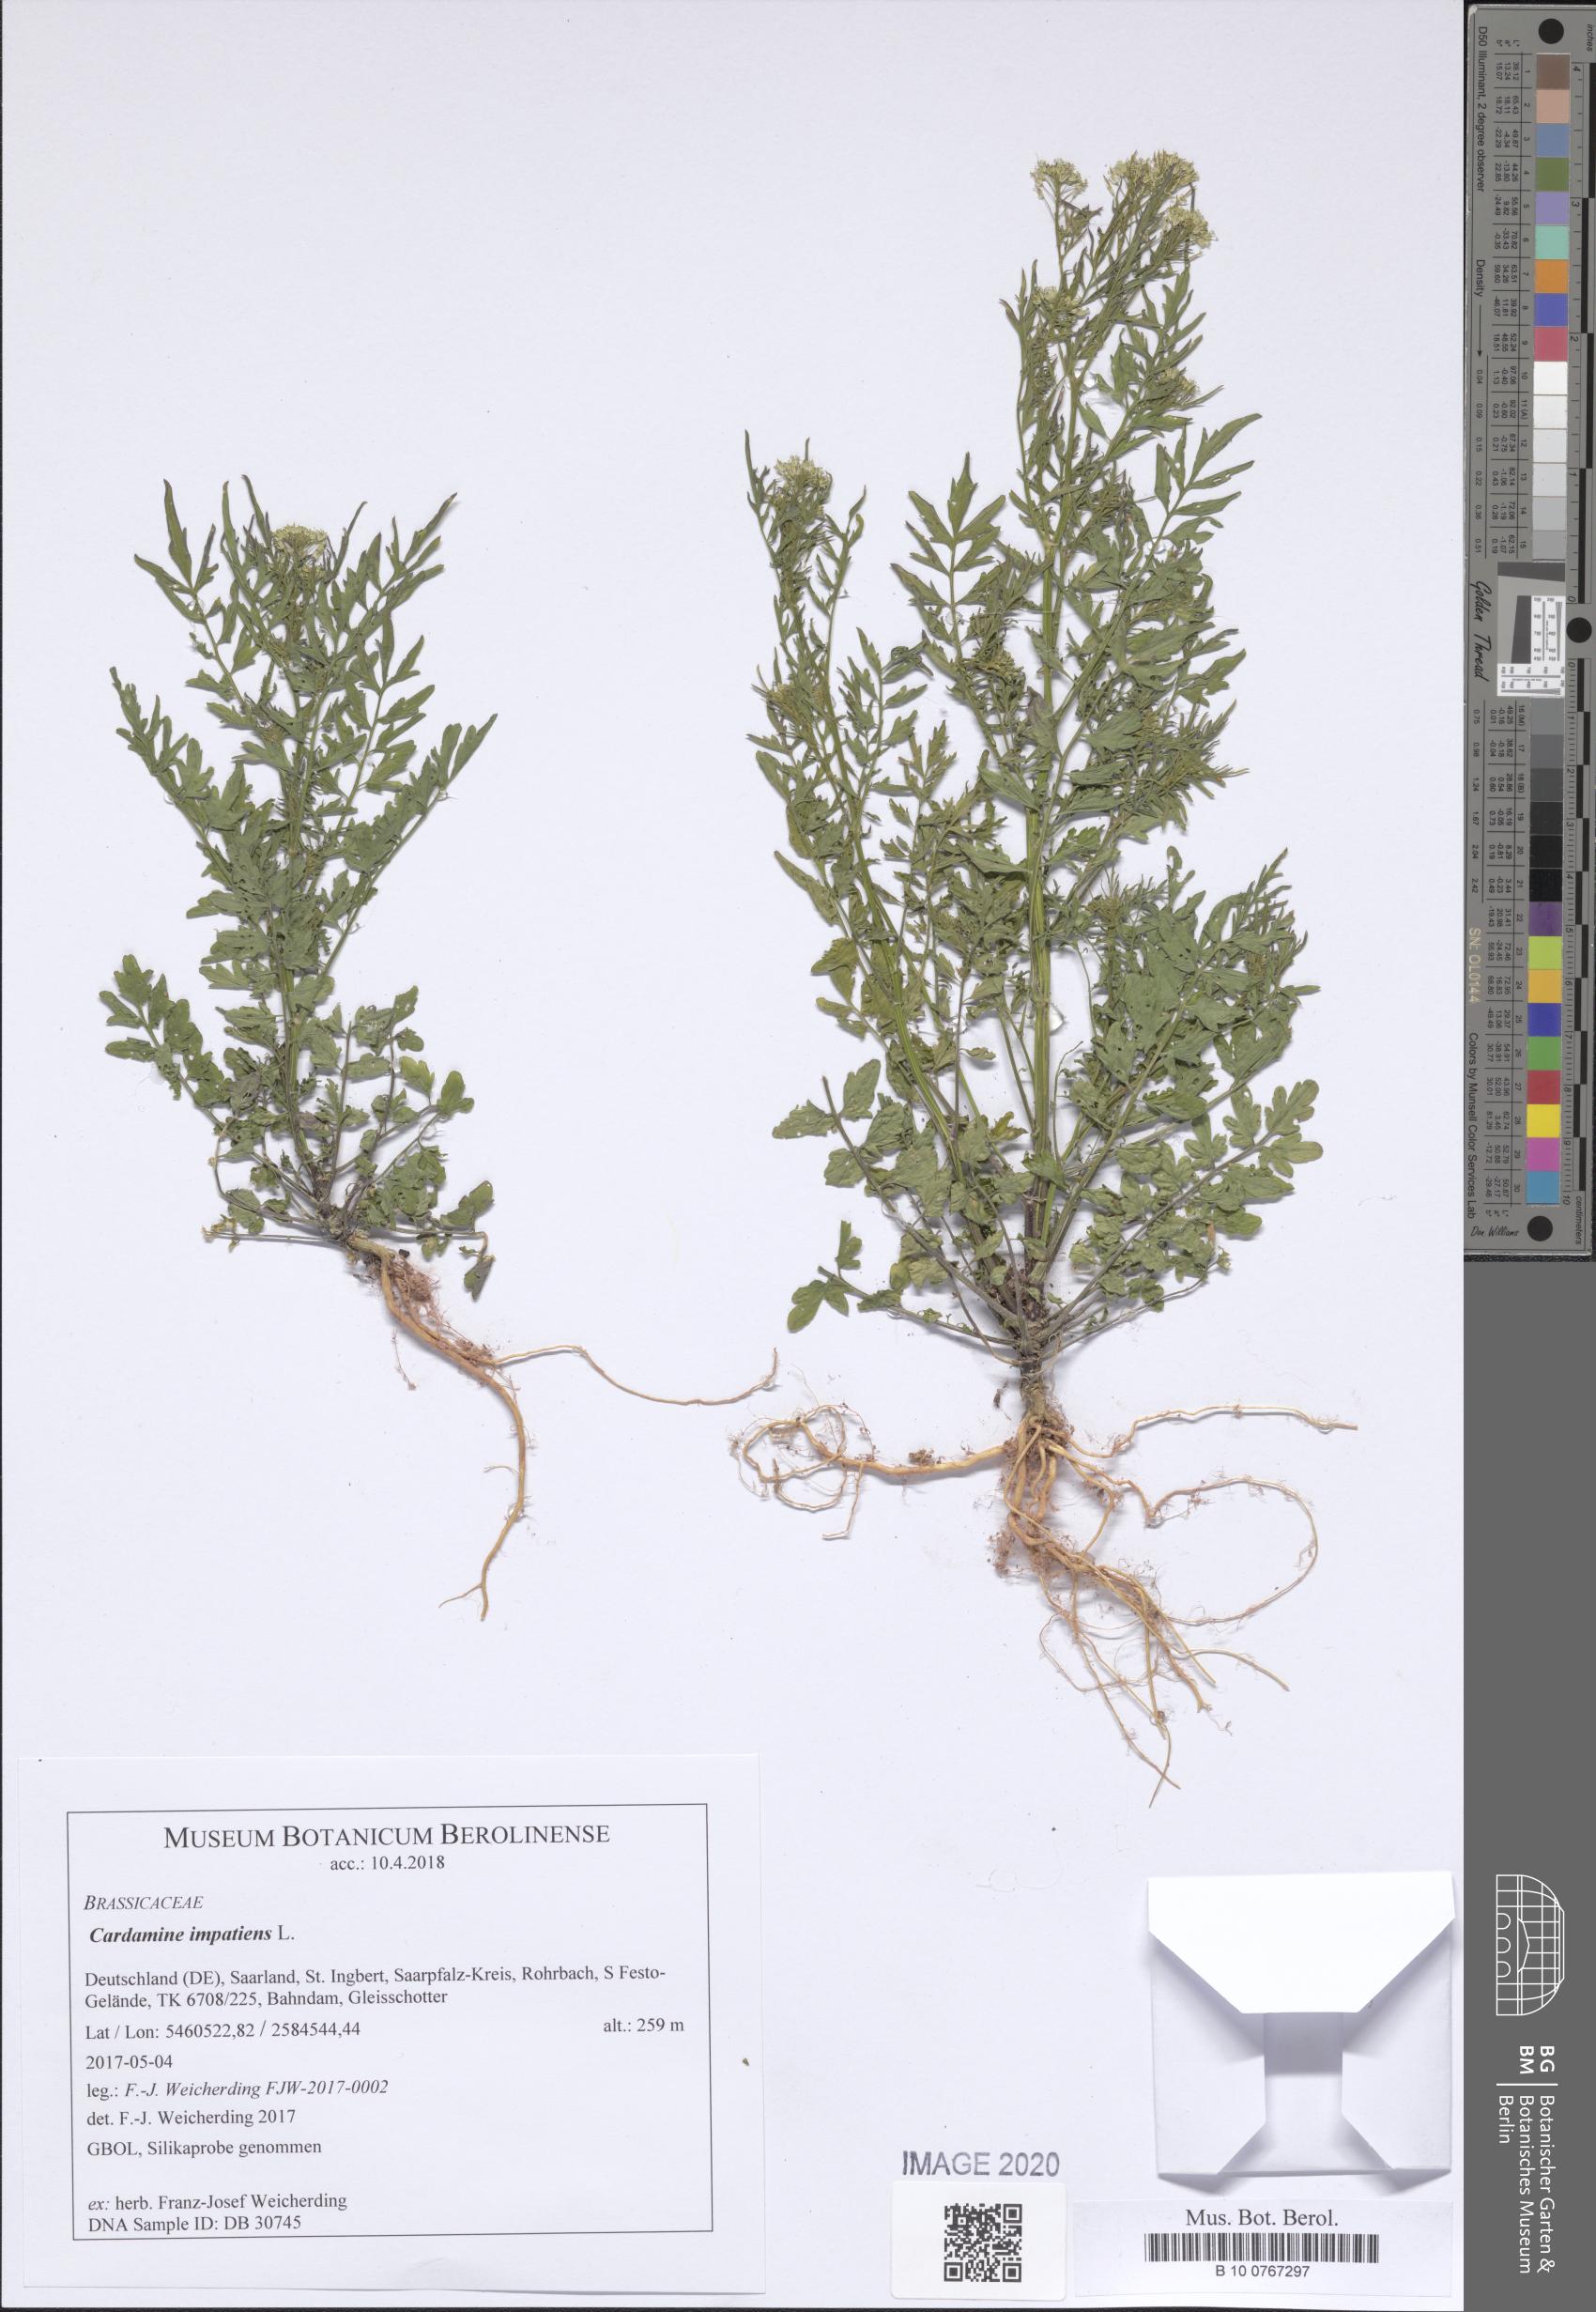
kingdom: Plantae
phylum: Tracheophyta
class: Magnoliopsida
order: Brassicales
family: Brassicaceae
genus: Cardamine
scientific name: Cardamine impatiens
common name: Narrow-leaved bitter-cress
